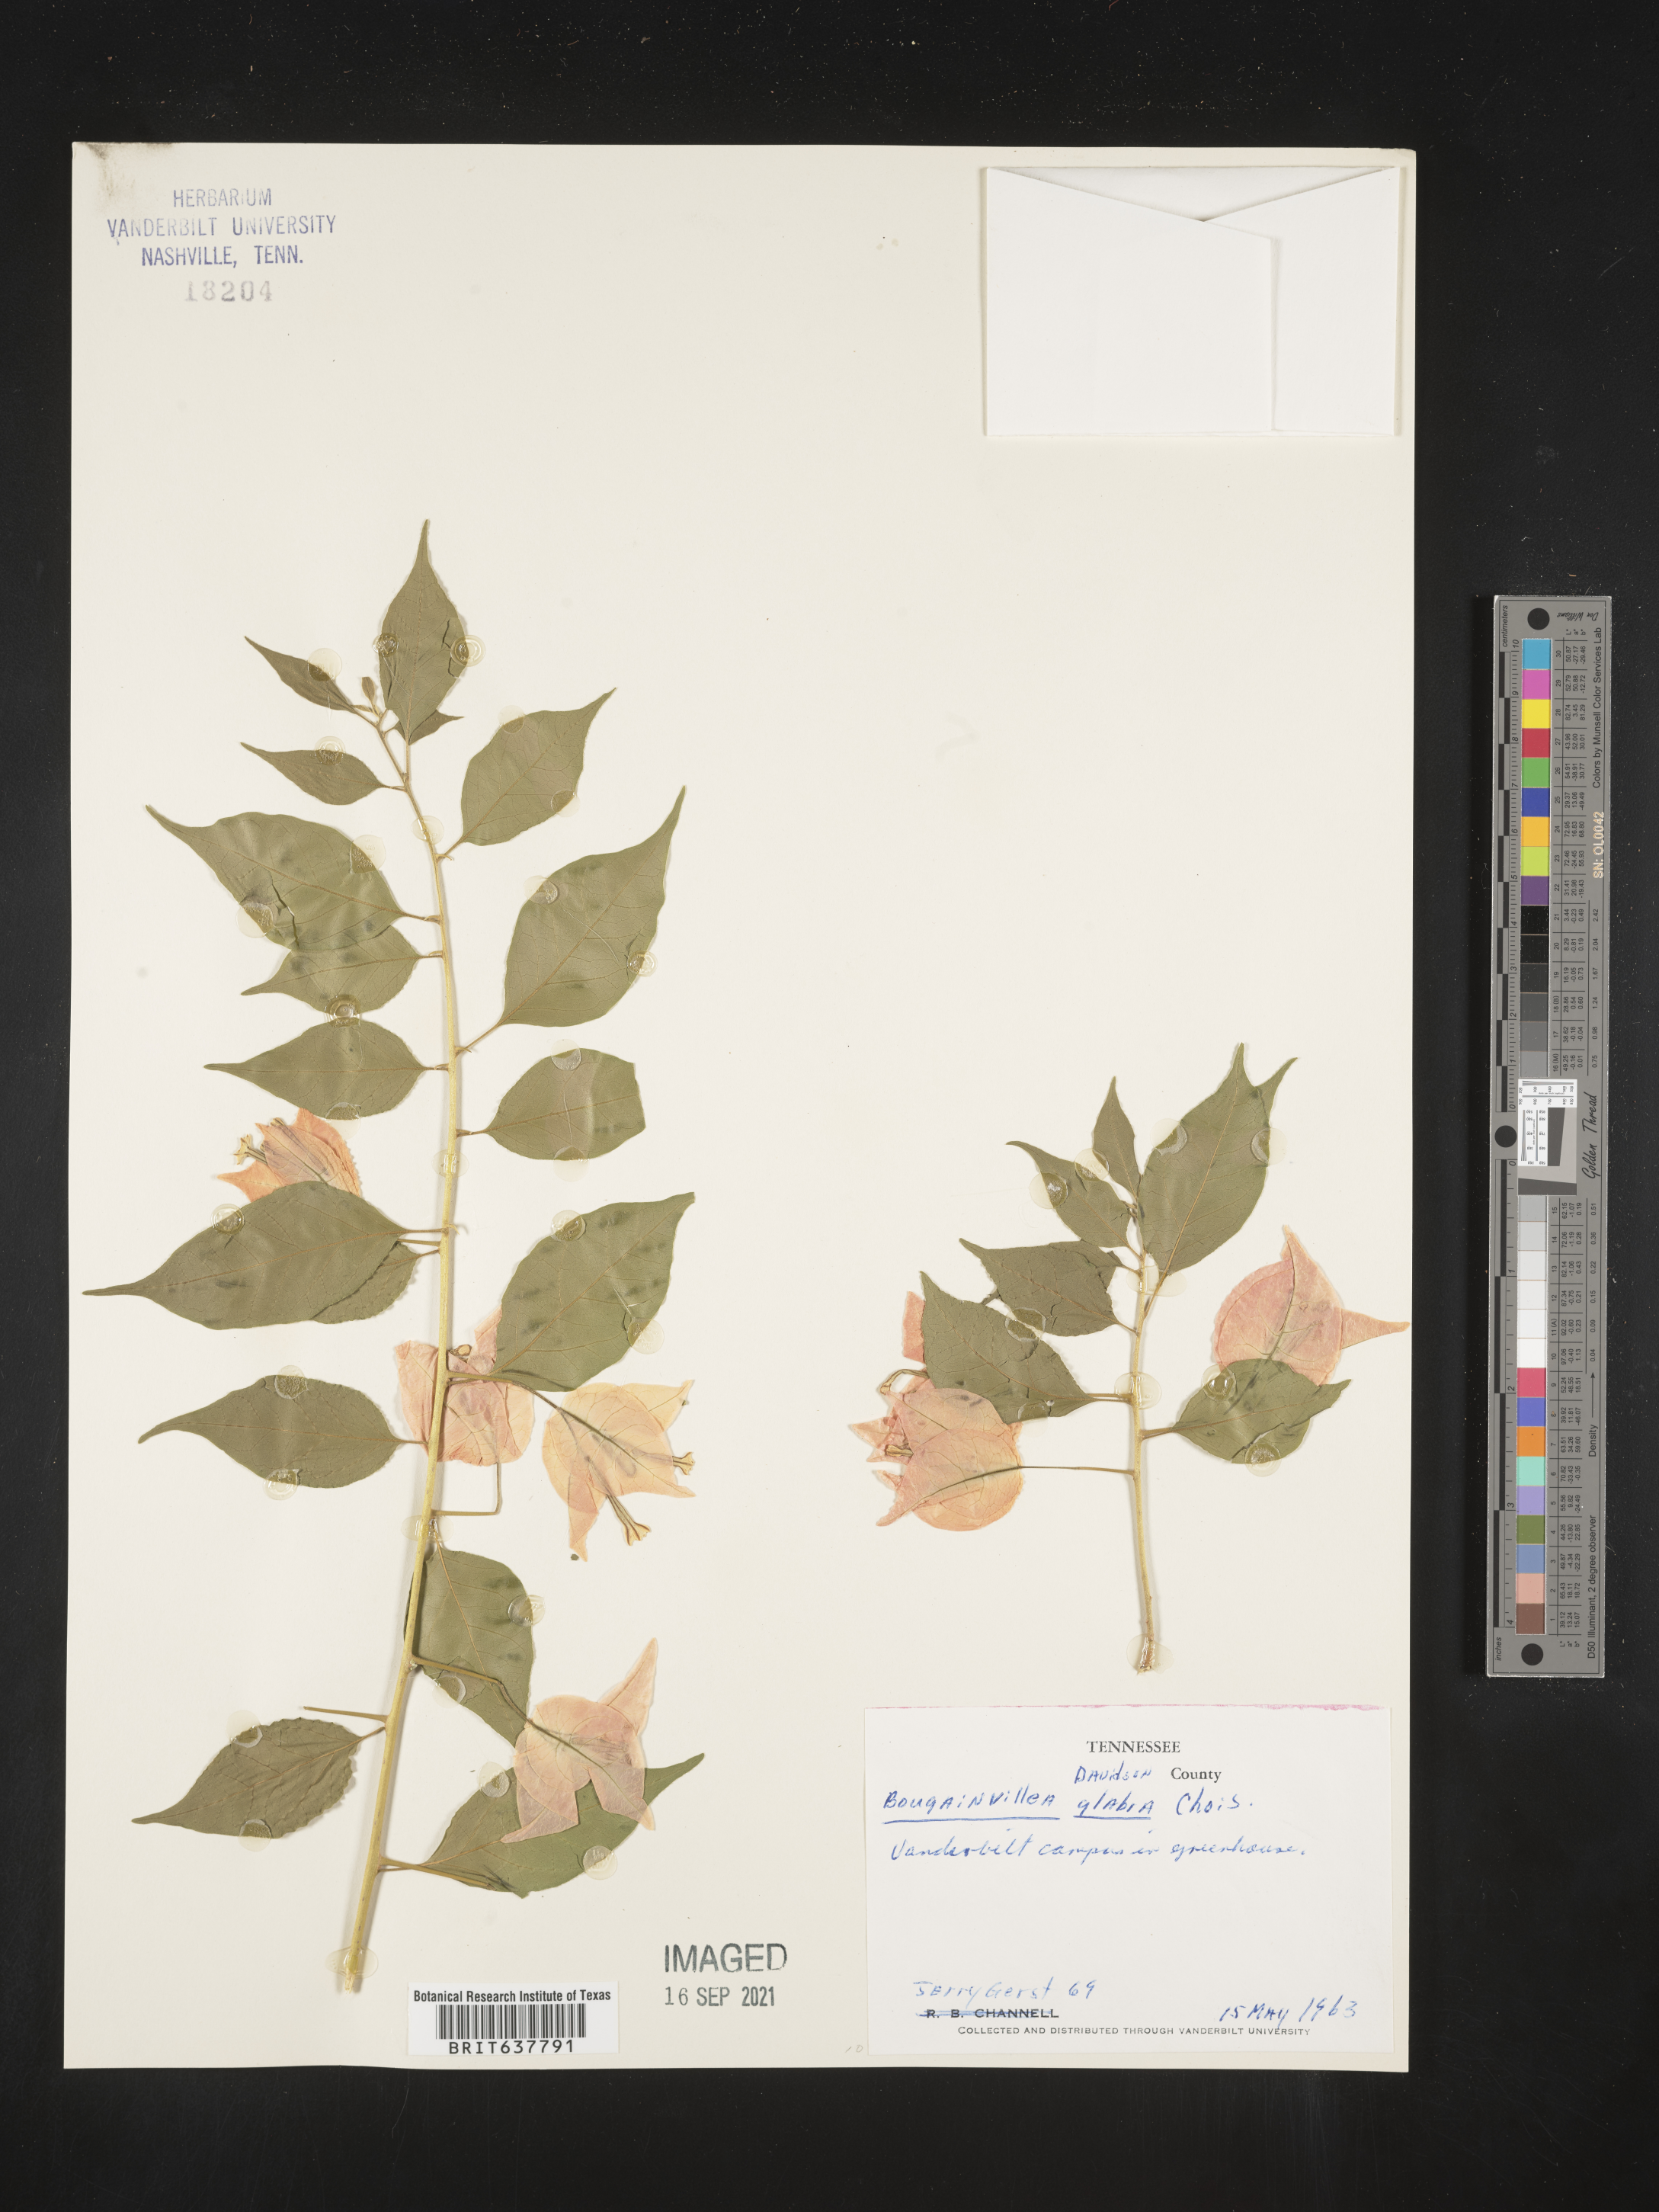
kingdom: Plantae
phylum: Tracheophyta
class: Magnoliopsida
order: Caryophyllales
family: Nyctaginaceae
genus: Bougainvillea
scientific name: Bougainvillea
